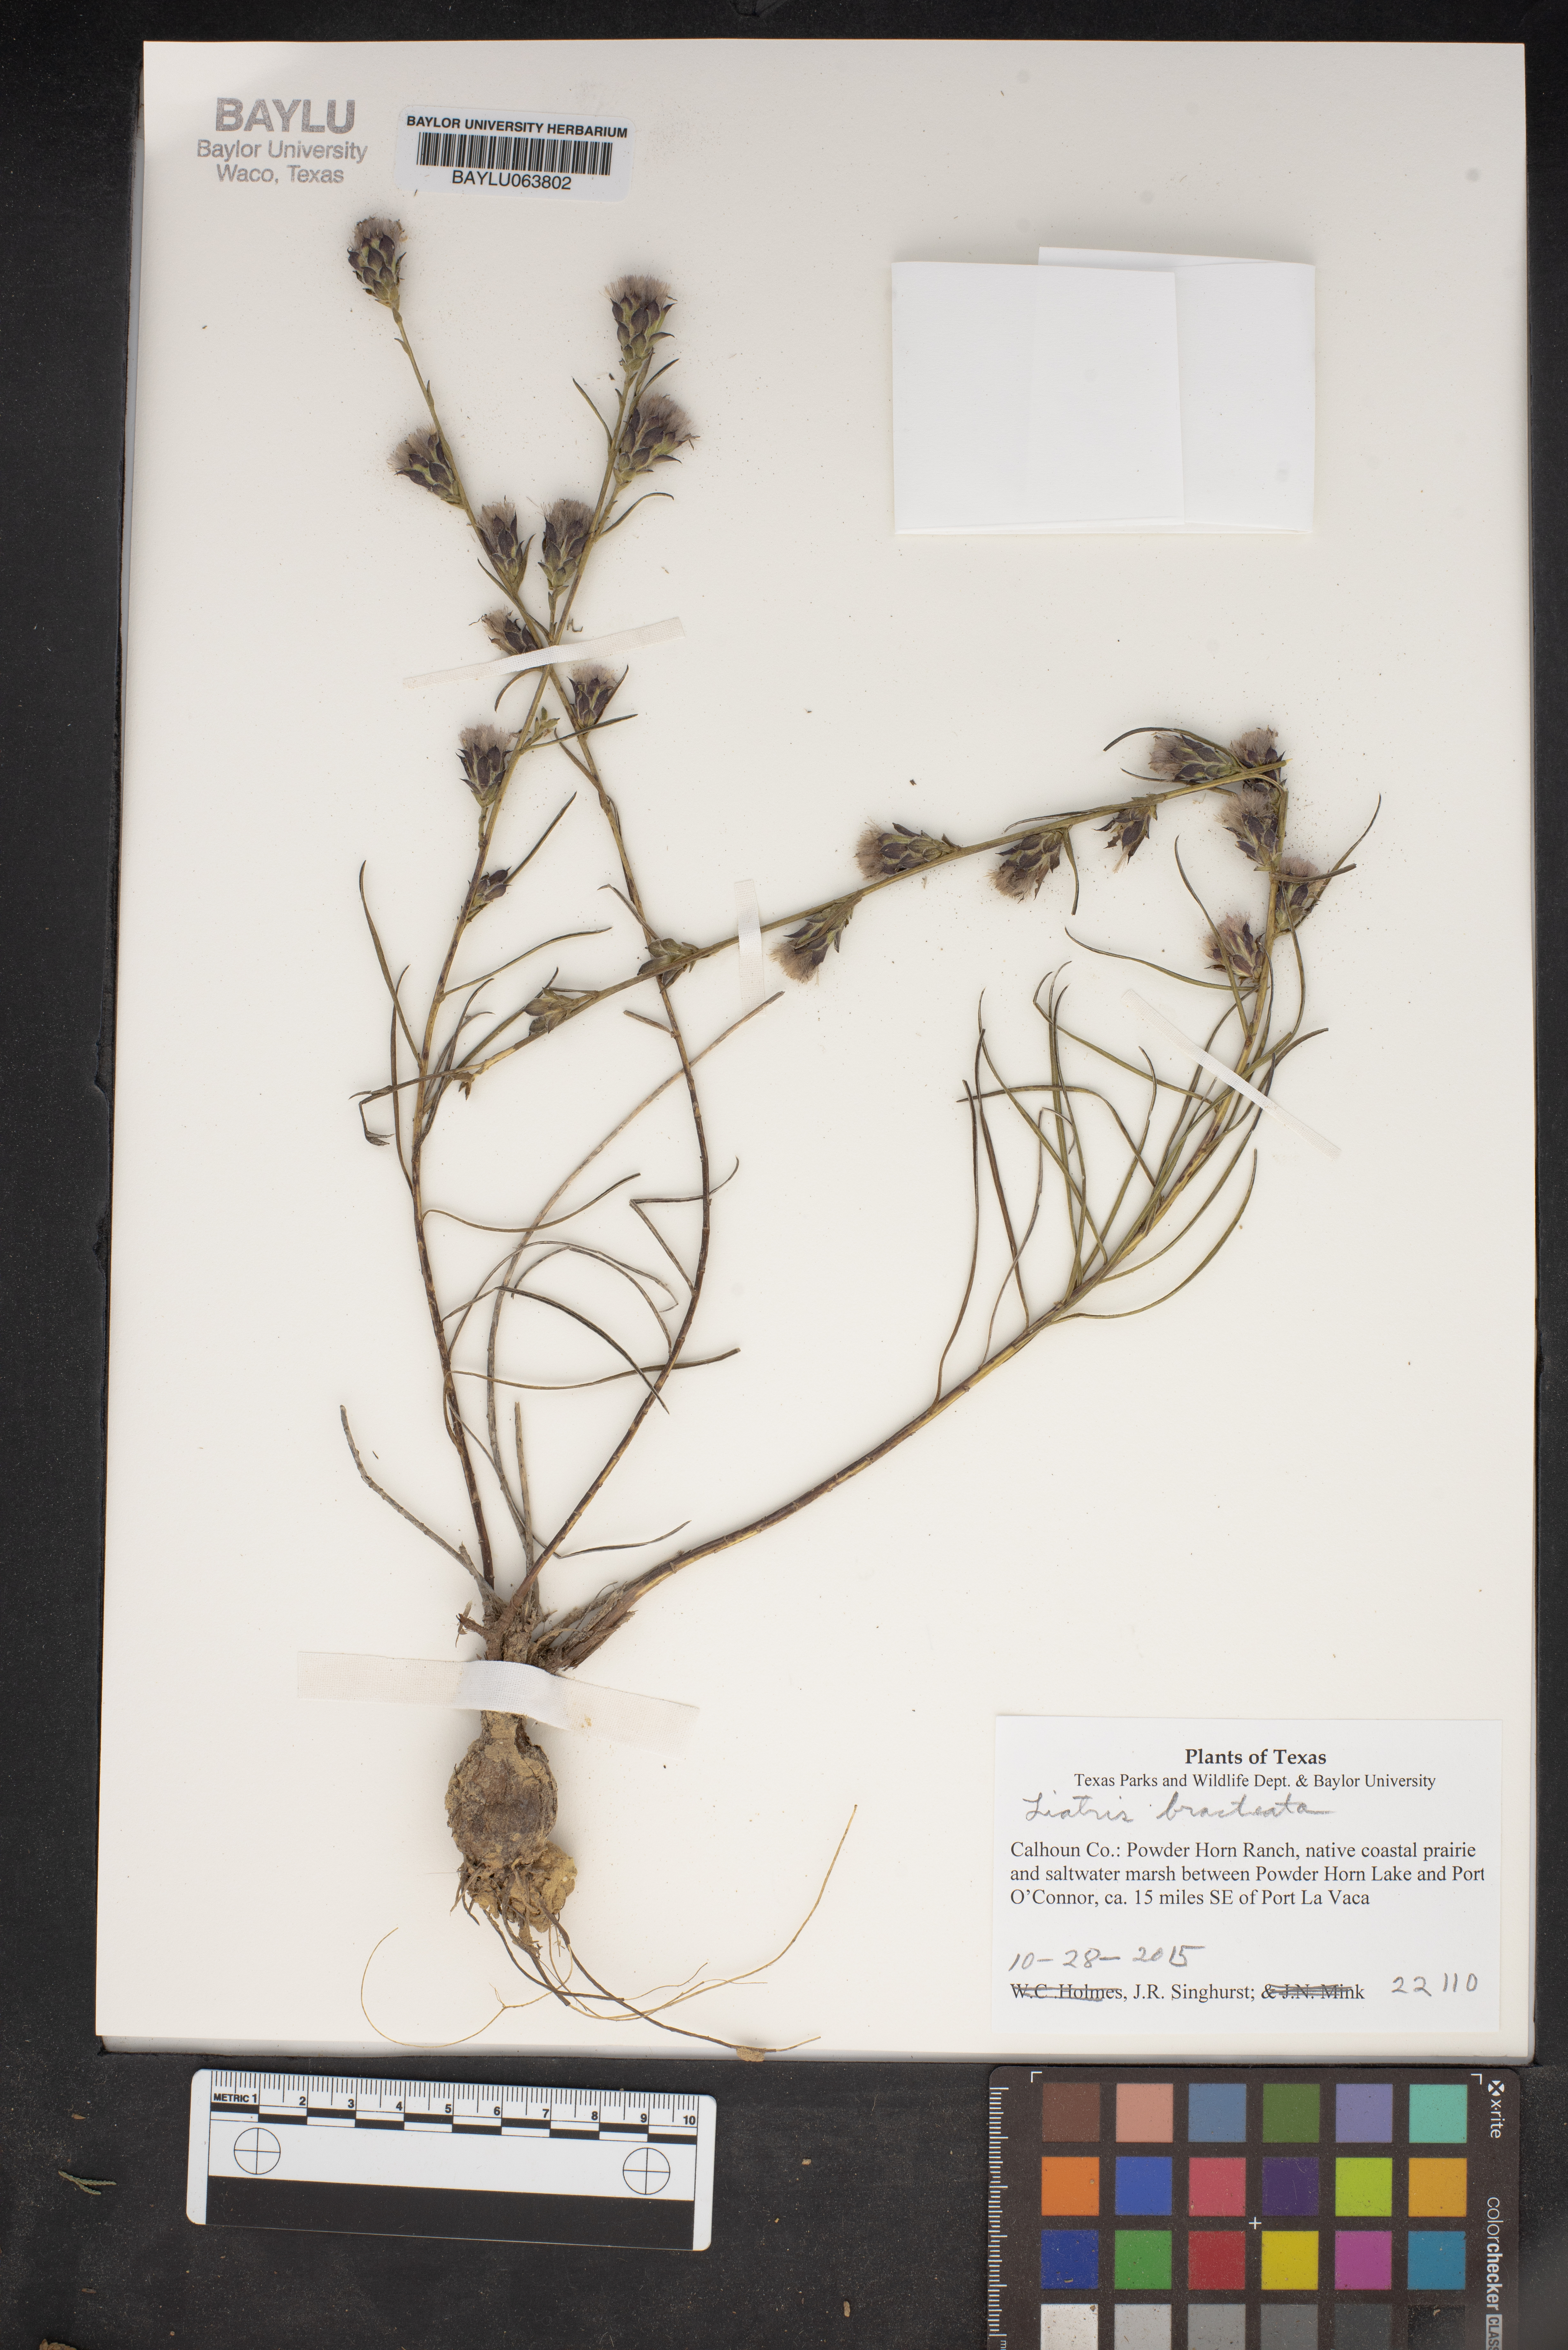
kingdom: Plantae
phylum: Tracheophyta
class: Magnoliopsida
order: Asterales
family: Asteraceae
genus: Liatris
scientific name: Liatris bracteata
